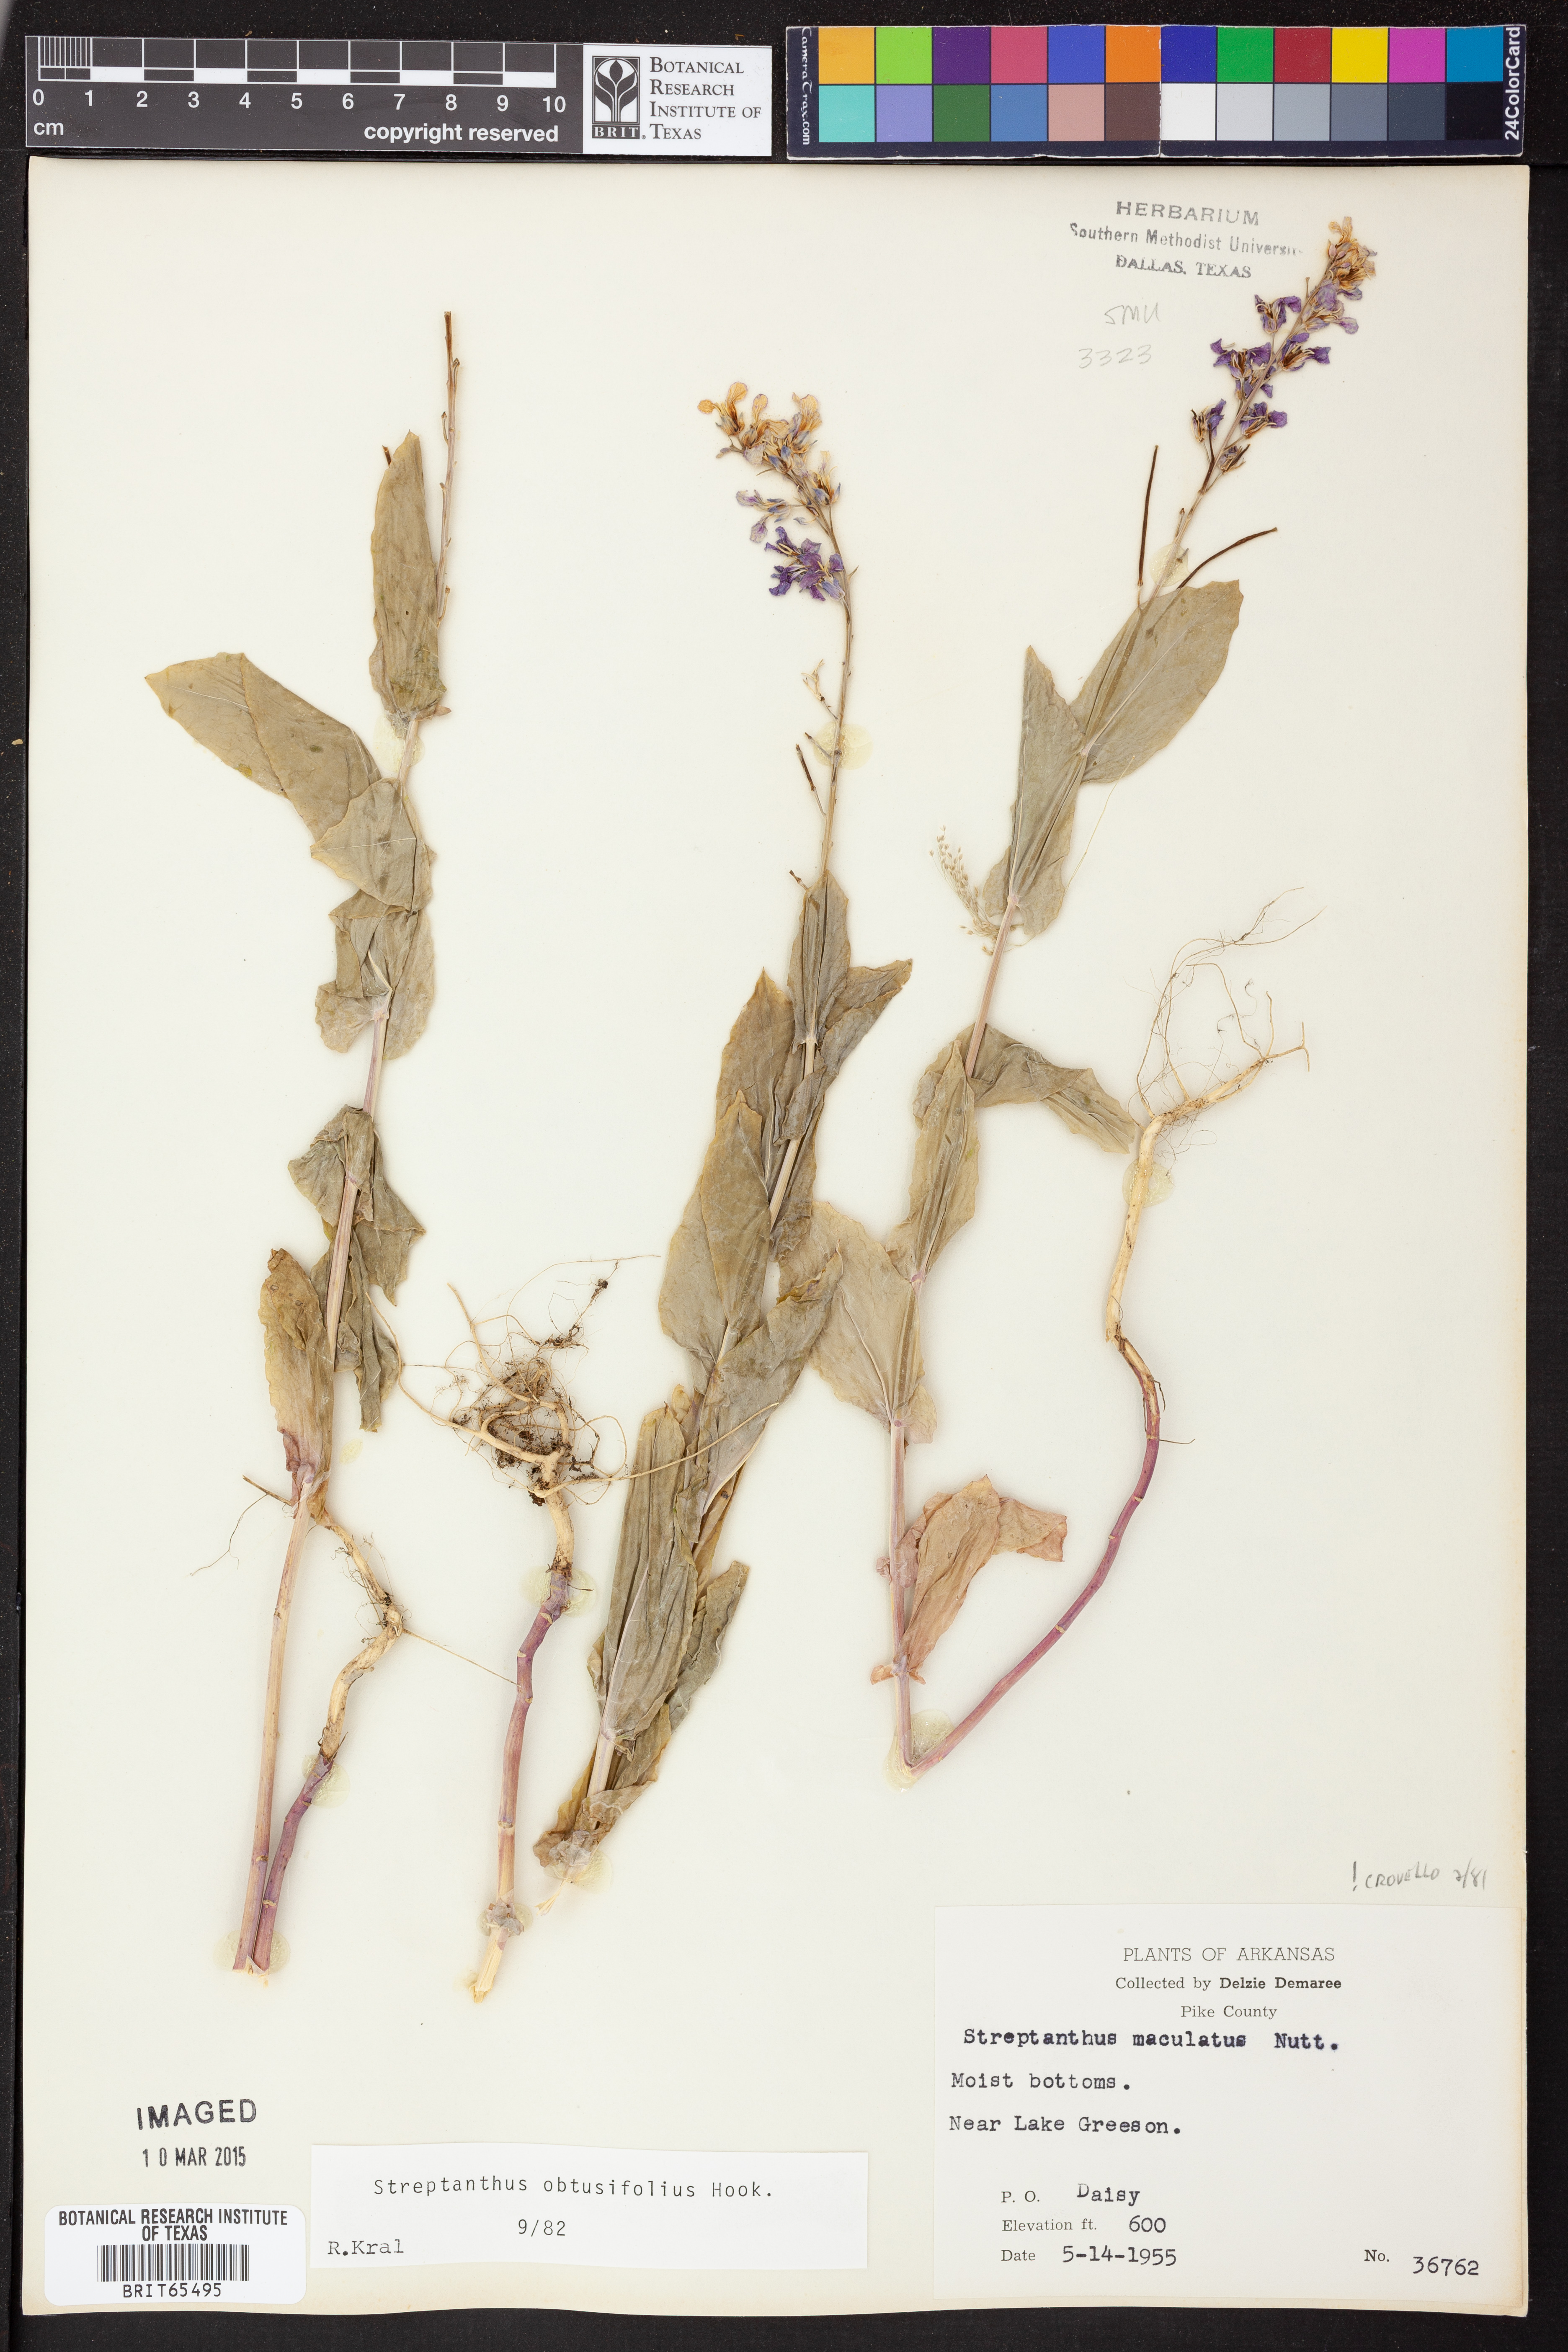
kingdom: Plantae
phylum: Tracheophyta
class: Magnoliopsida
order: Brassicales
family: Brassicaceae
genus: Streptanthus
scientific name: Streptanthus maculatus
